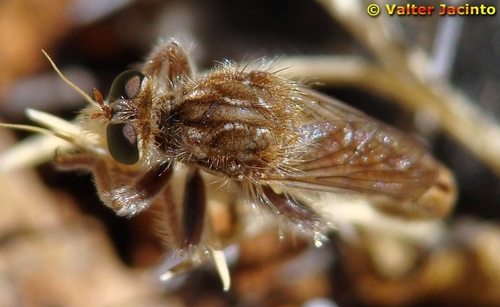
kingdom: Animalia
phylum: Arthropoda
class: Insecta
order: Diptera
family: Asilidae
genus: Habropogon
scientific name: Habropogon
